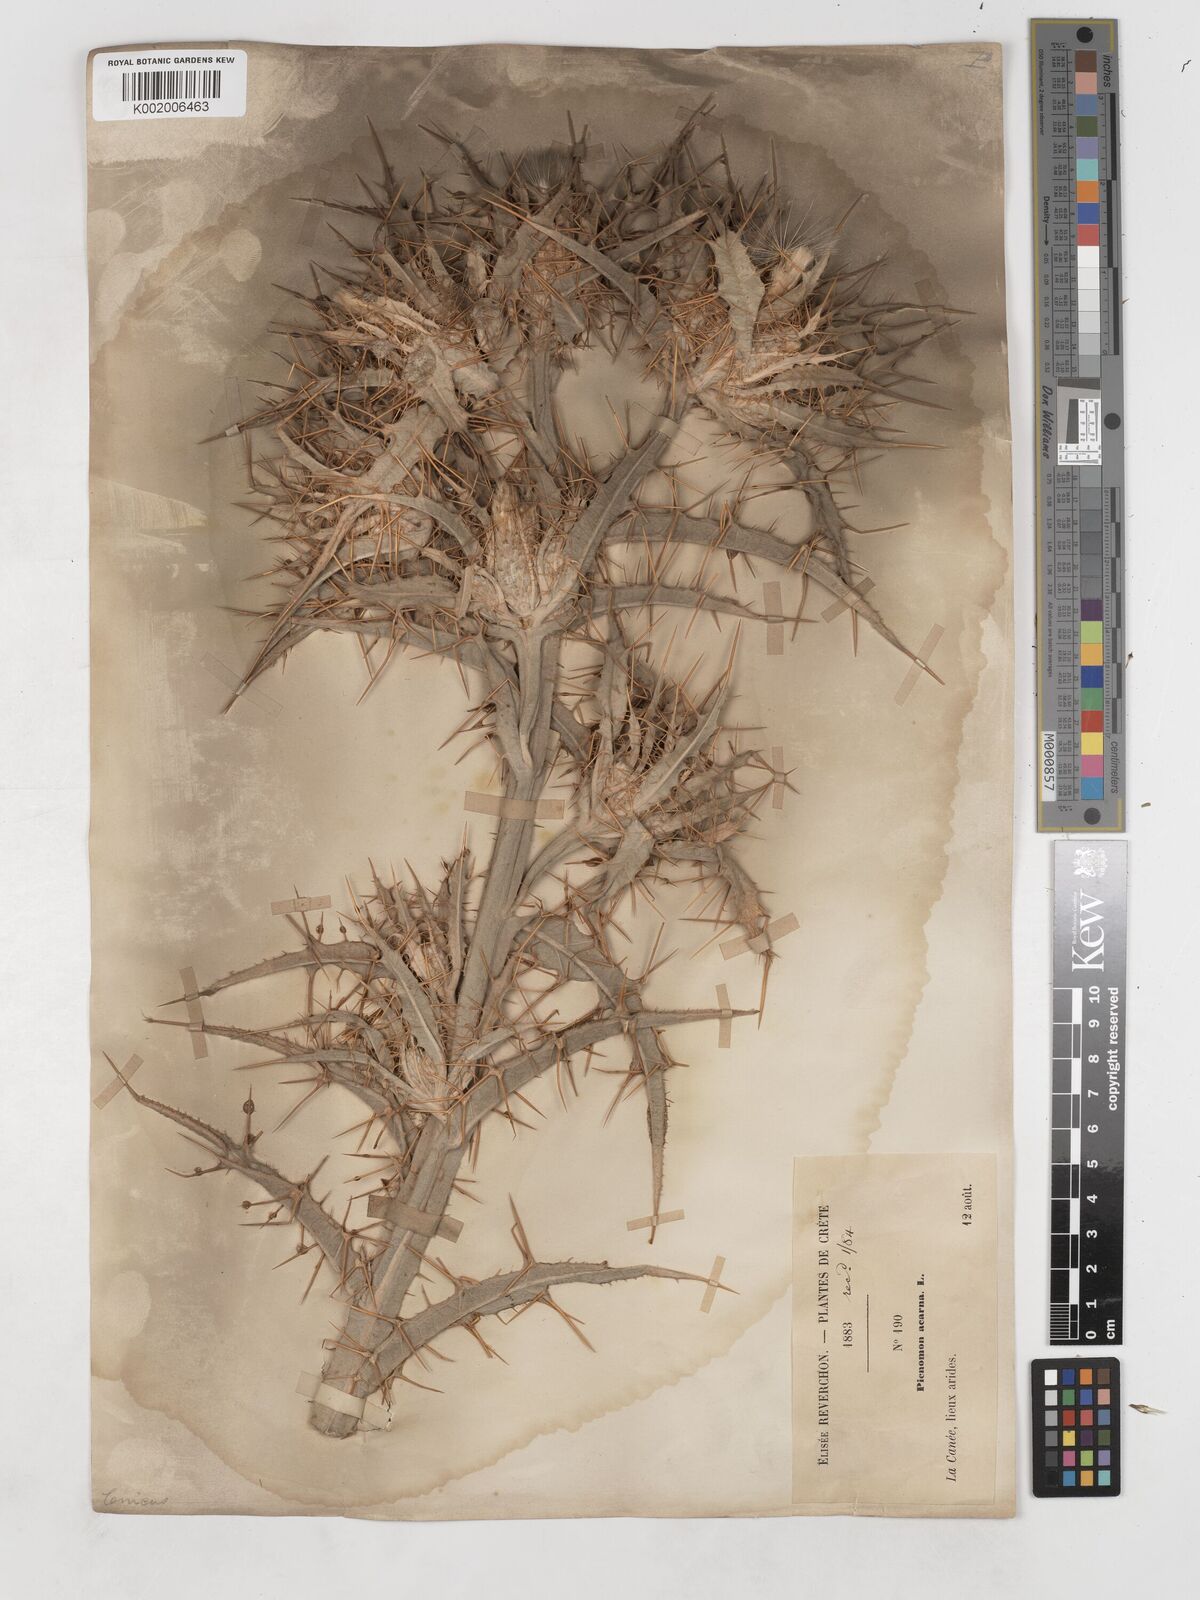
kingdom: Plantae
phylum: Tracheophyta
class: Magnoliopsida
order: Asterales
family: Asteraceae
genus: Picnomon
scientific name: Picnomon acarna
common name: Soldier thistle
